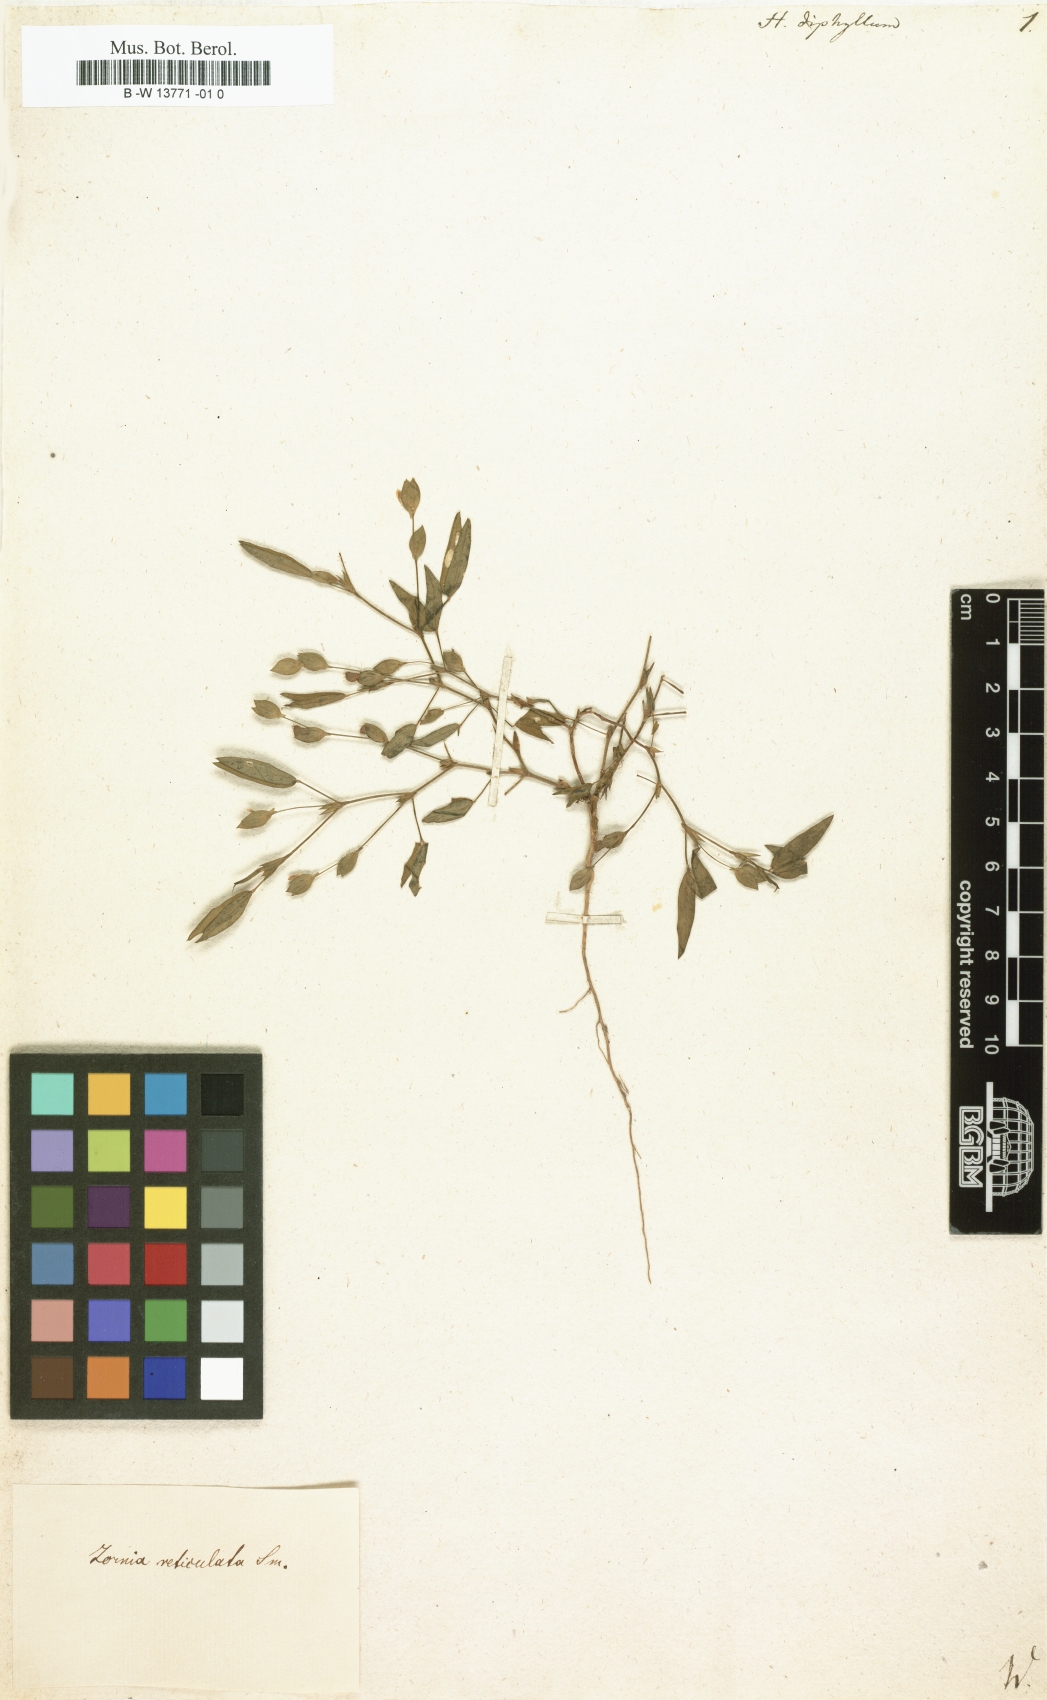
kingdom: Plantae
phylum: Tracheophyta
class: Magnoliopsida
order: Fabales
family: Fabaceae
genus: Zornia
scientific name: Zornia diphylla
